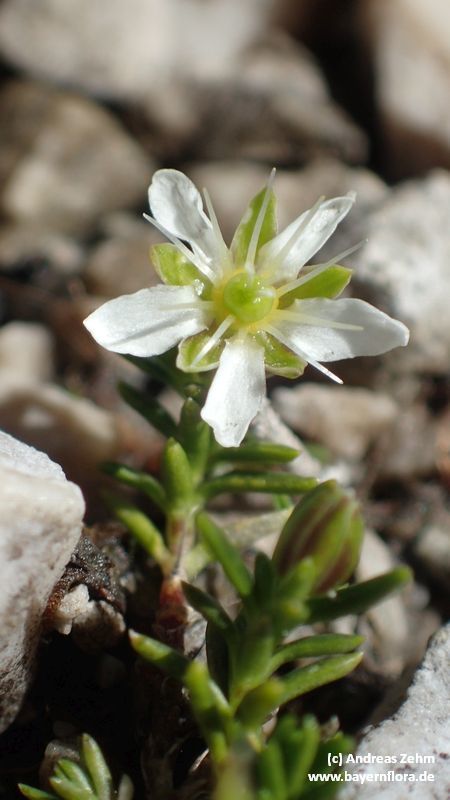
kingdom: Plantae
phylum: Tracheophyta
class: Magnoliopsida
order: Caryophyllales
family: Caryophyllaceae
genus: Moehringia
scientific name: Moehringia ciliata
